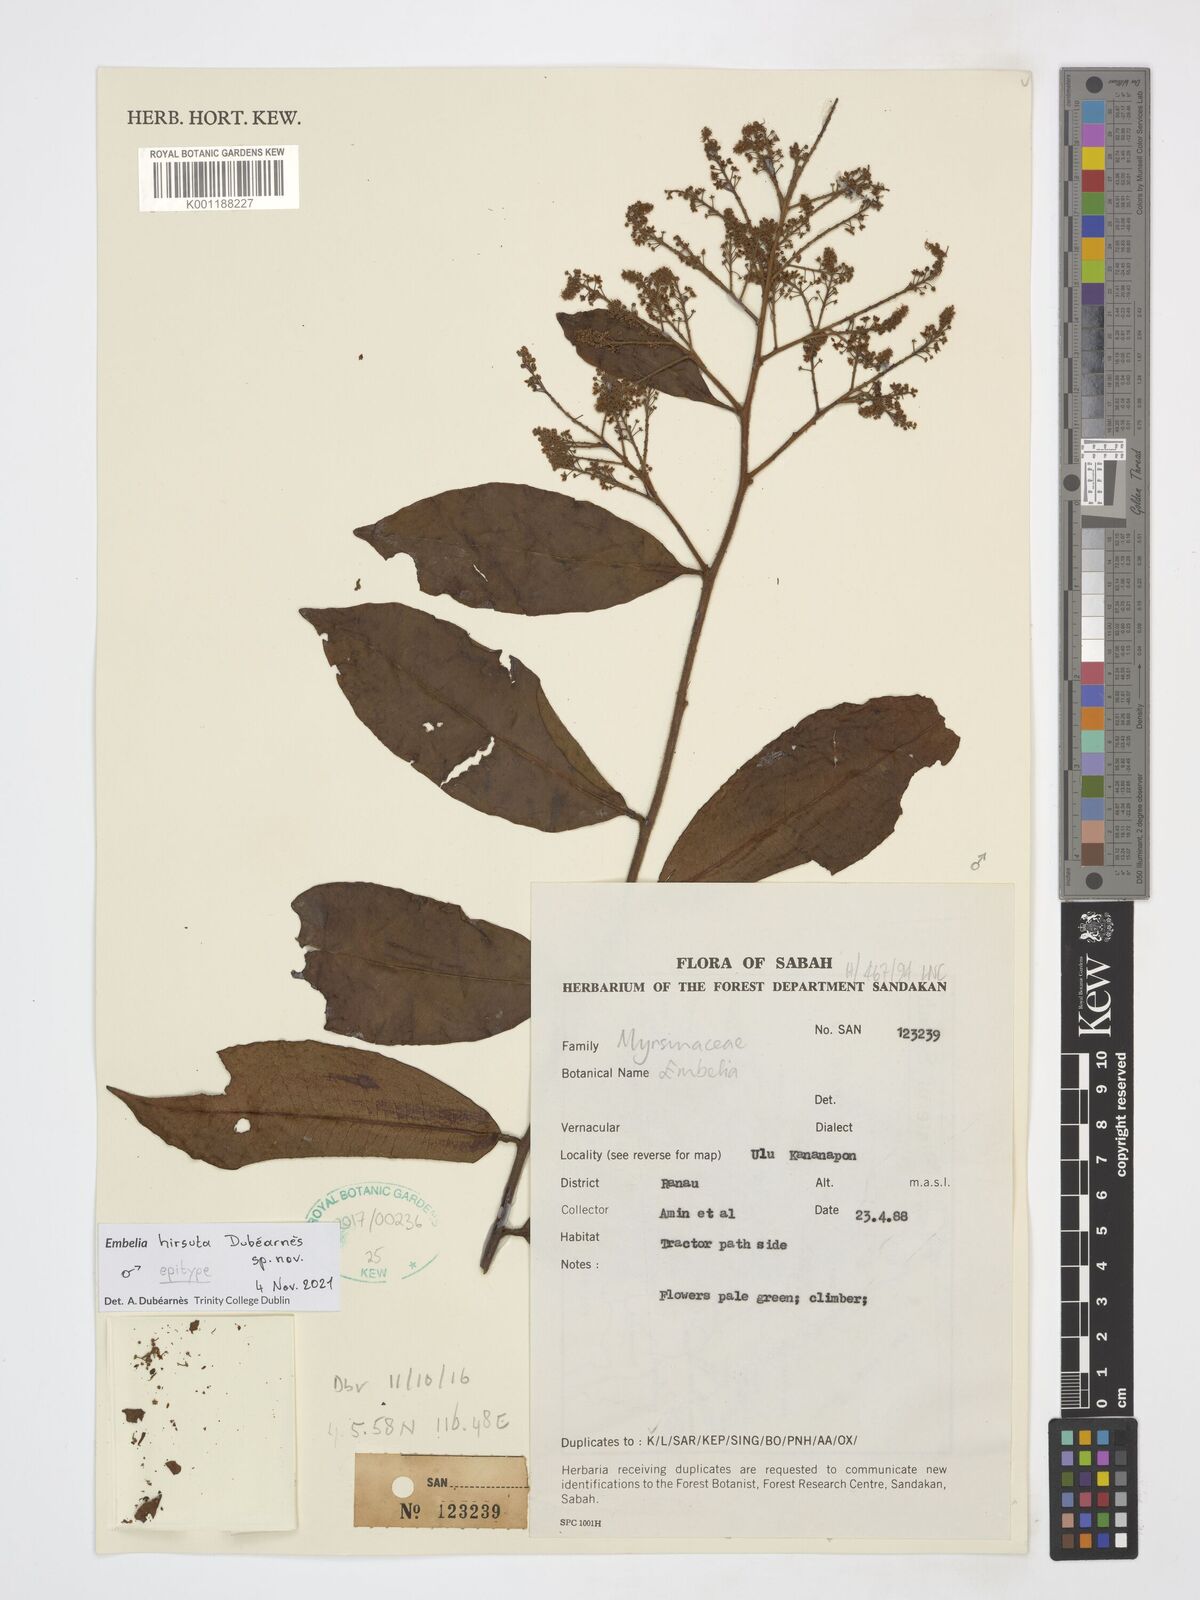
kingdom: Plantae
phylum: Tracheophyta
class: Magnoliopsida
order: Ericales
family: Primulaceae
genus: Embelia
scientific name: Embelia
